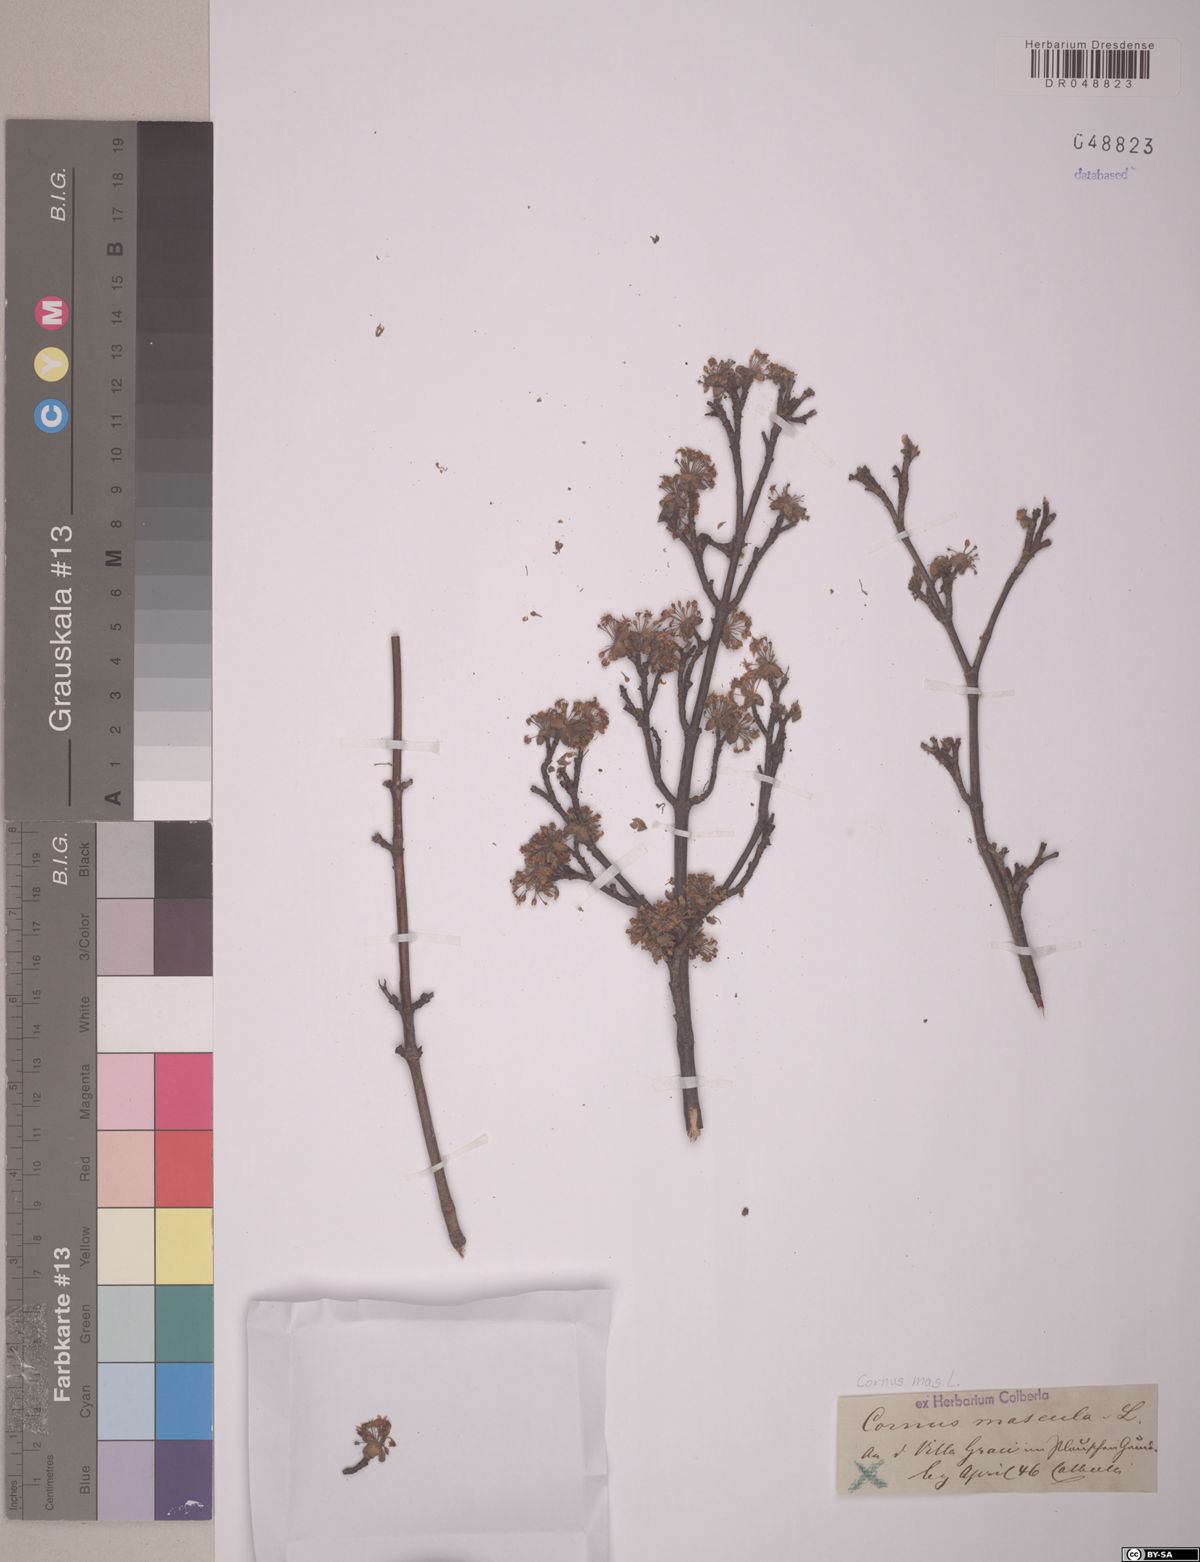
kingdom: Plantae
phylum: Tracheophyta
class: Magnoliopsida
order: Cornales
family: Cornaceae
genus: Cornus
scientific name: Cornus mas
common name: Cornelian-cherry
